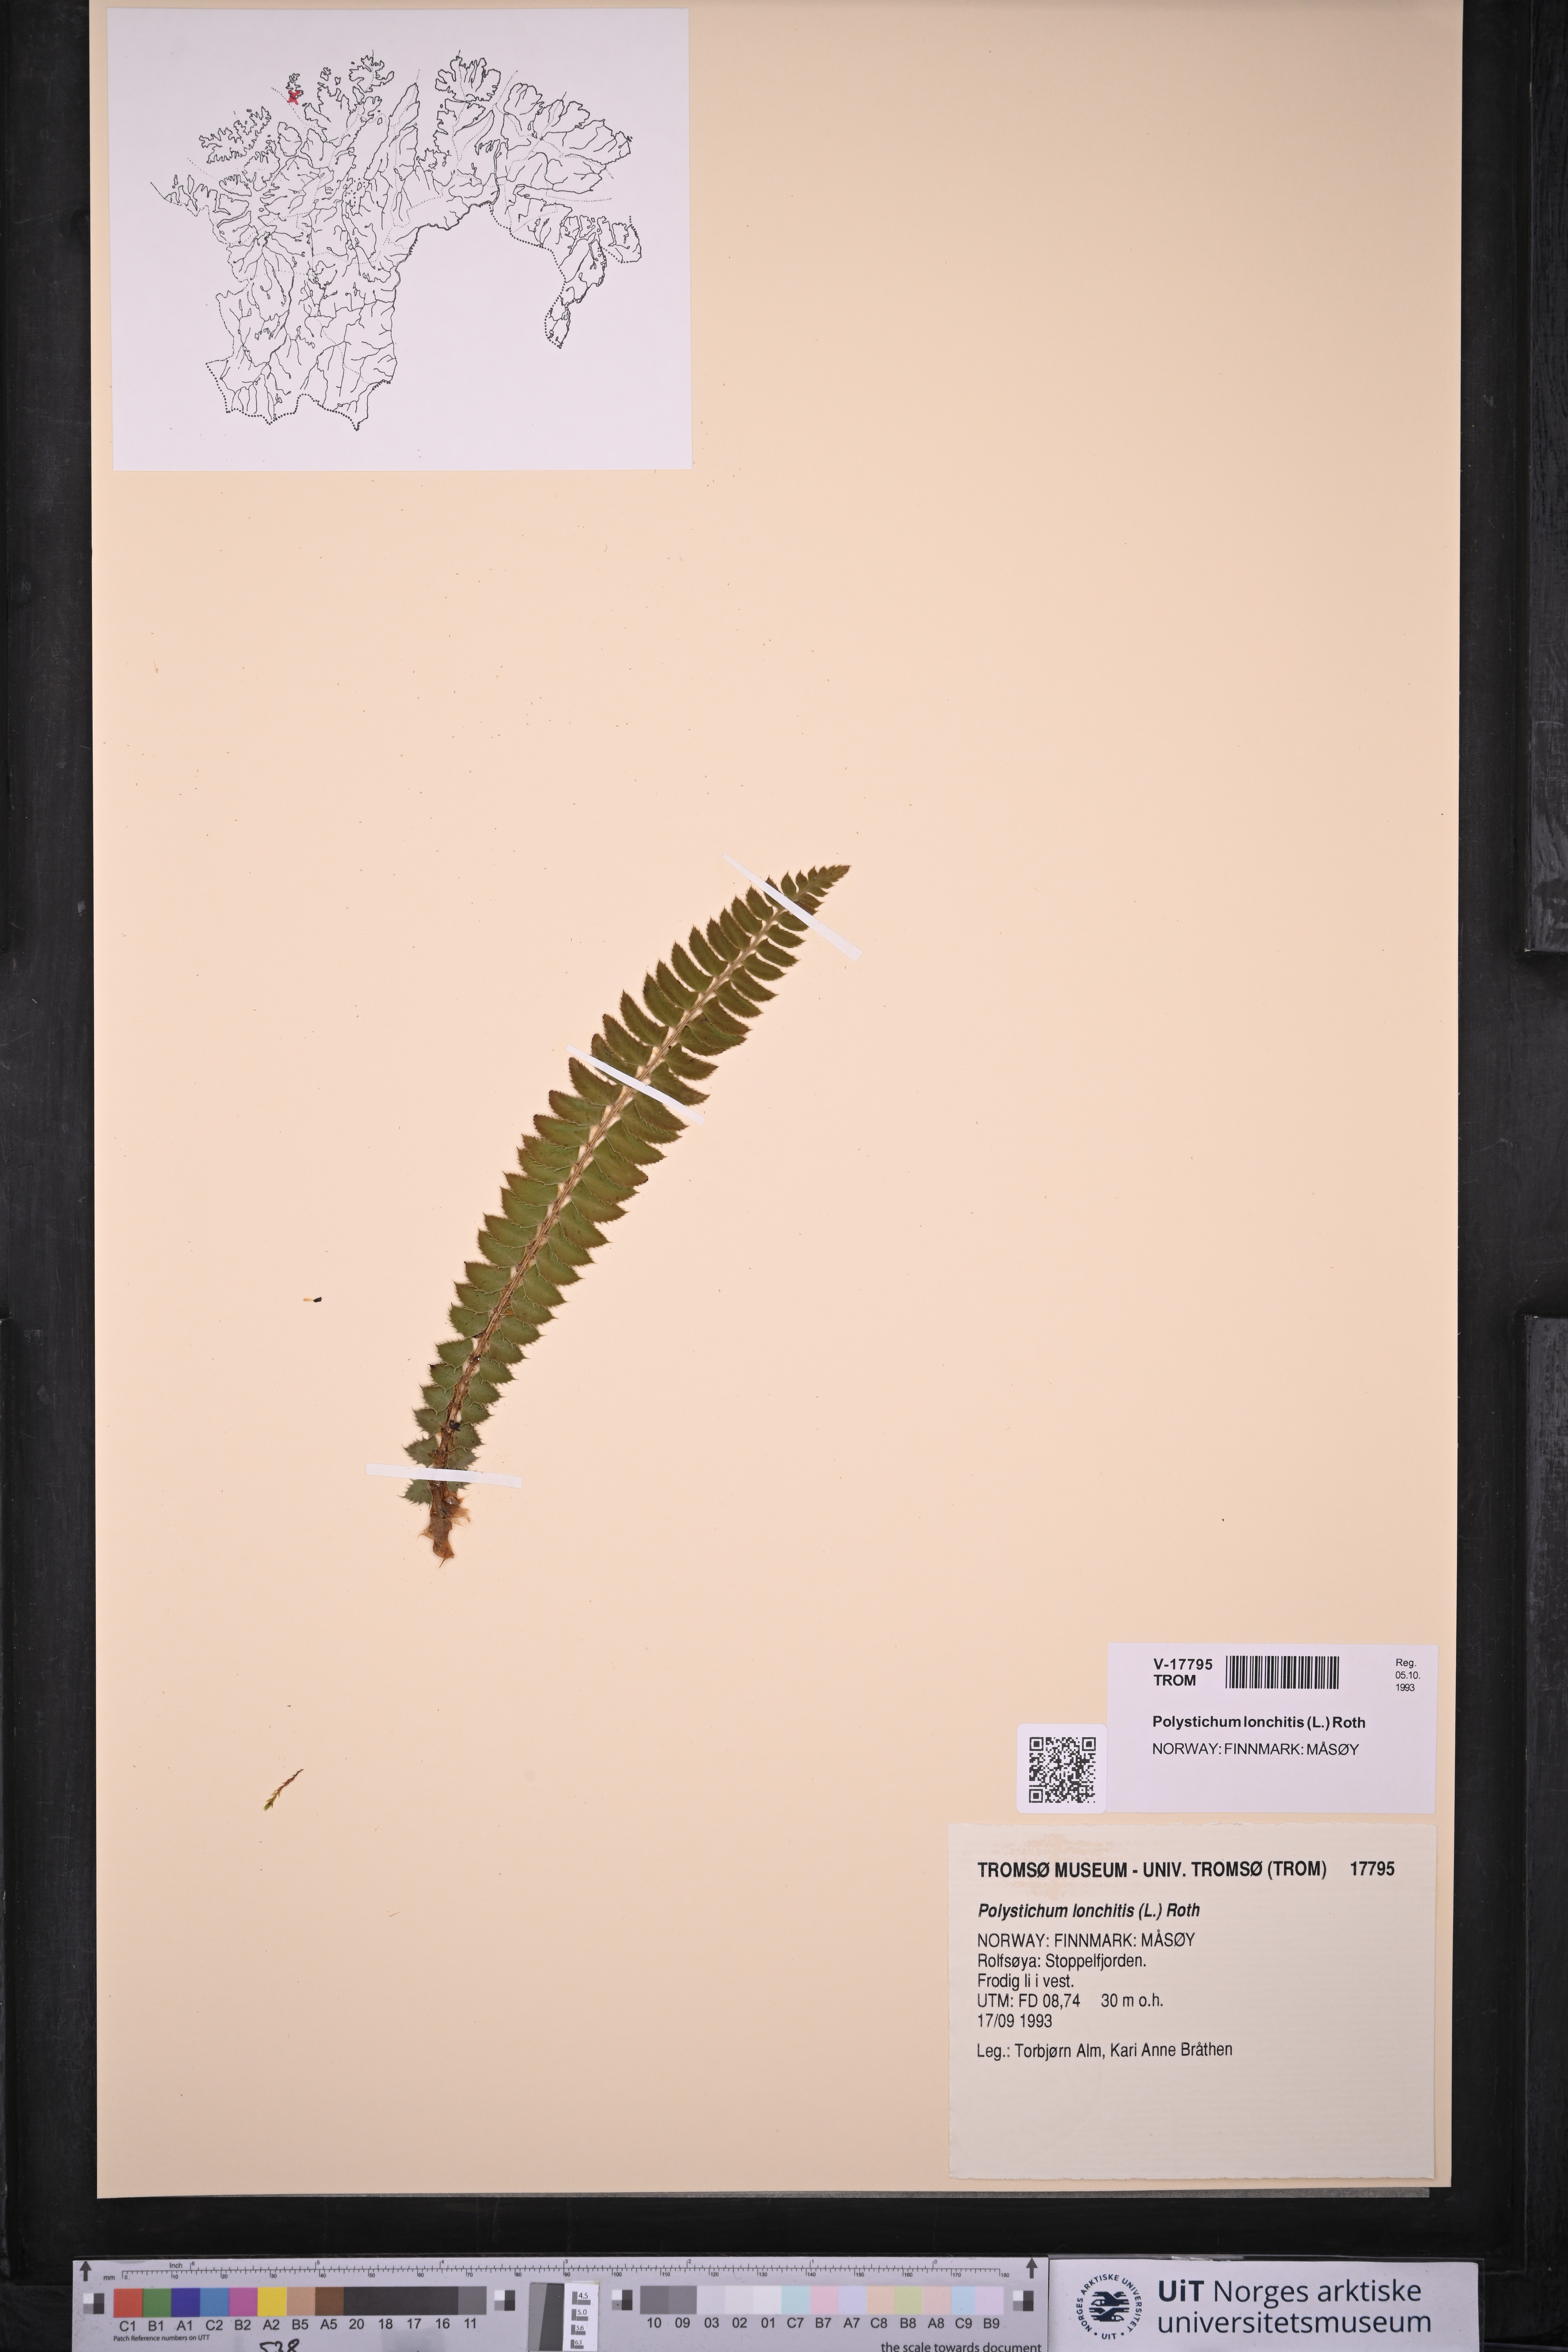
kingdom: Plantae
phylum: Tracheophyta
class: Polypodiopsida
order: Polypodiales
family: Dryopteridaceae
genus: Polystichum
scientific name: Polystichum lonchitis
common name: Holly fern
